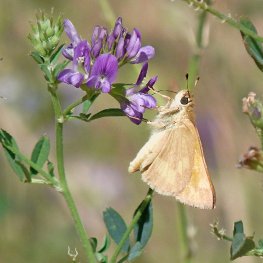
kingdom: Animalia
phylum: Arthropoda
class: Insecta
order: Lepidoptera
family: Hesperiidae
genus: Ochlodes
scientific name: Ochlodes sylvanoides
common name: Woodland Skipper
